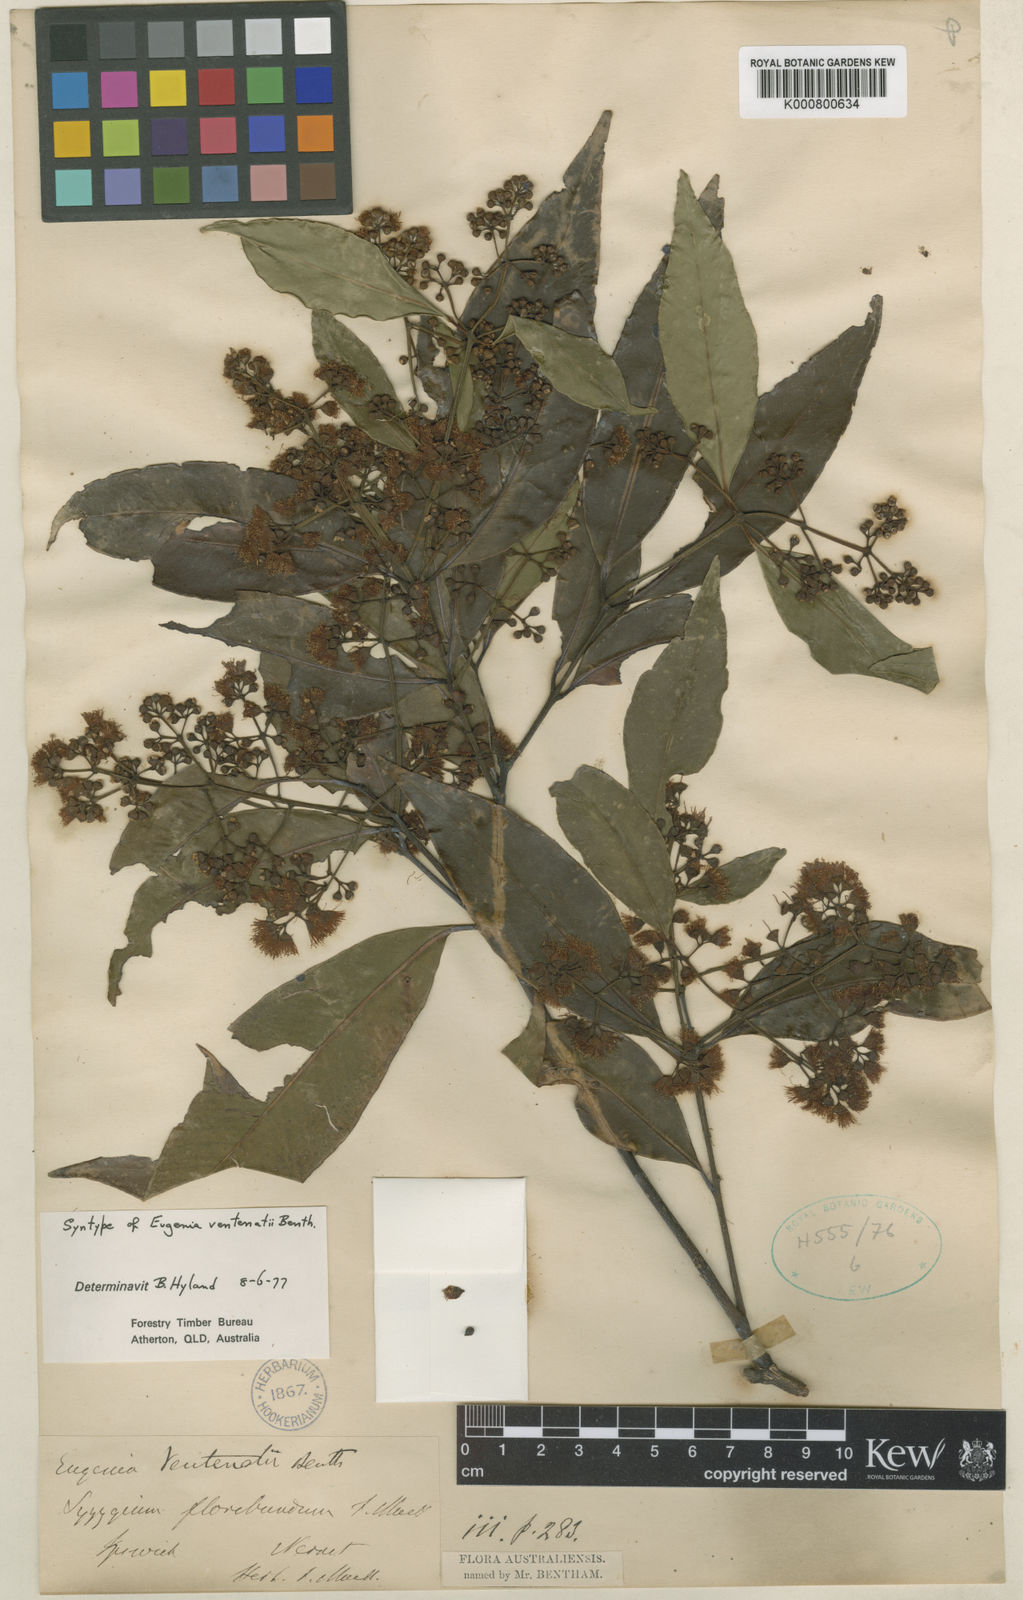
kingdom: Plantae
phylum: Tracheophyta
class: Magnoliopsida
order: Myrtales
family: Myrtaceae
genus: Syzygium
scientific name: Syzygium floribundum
